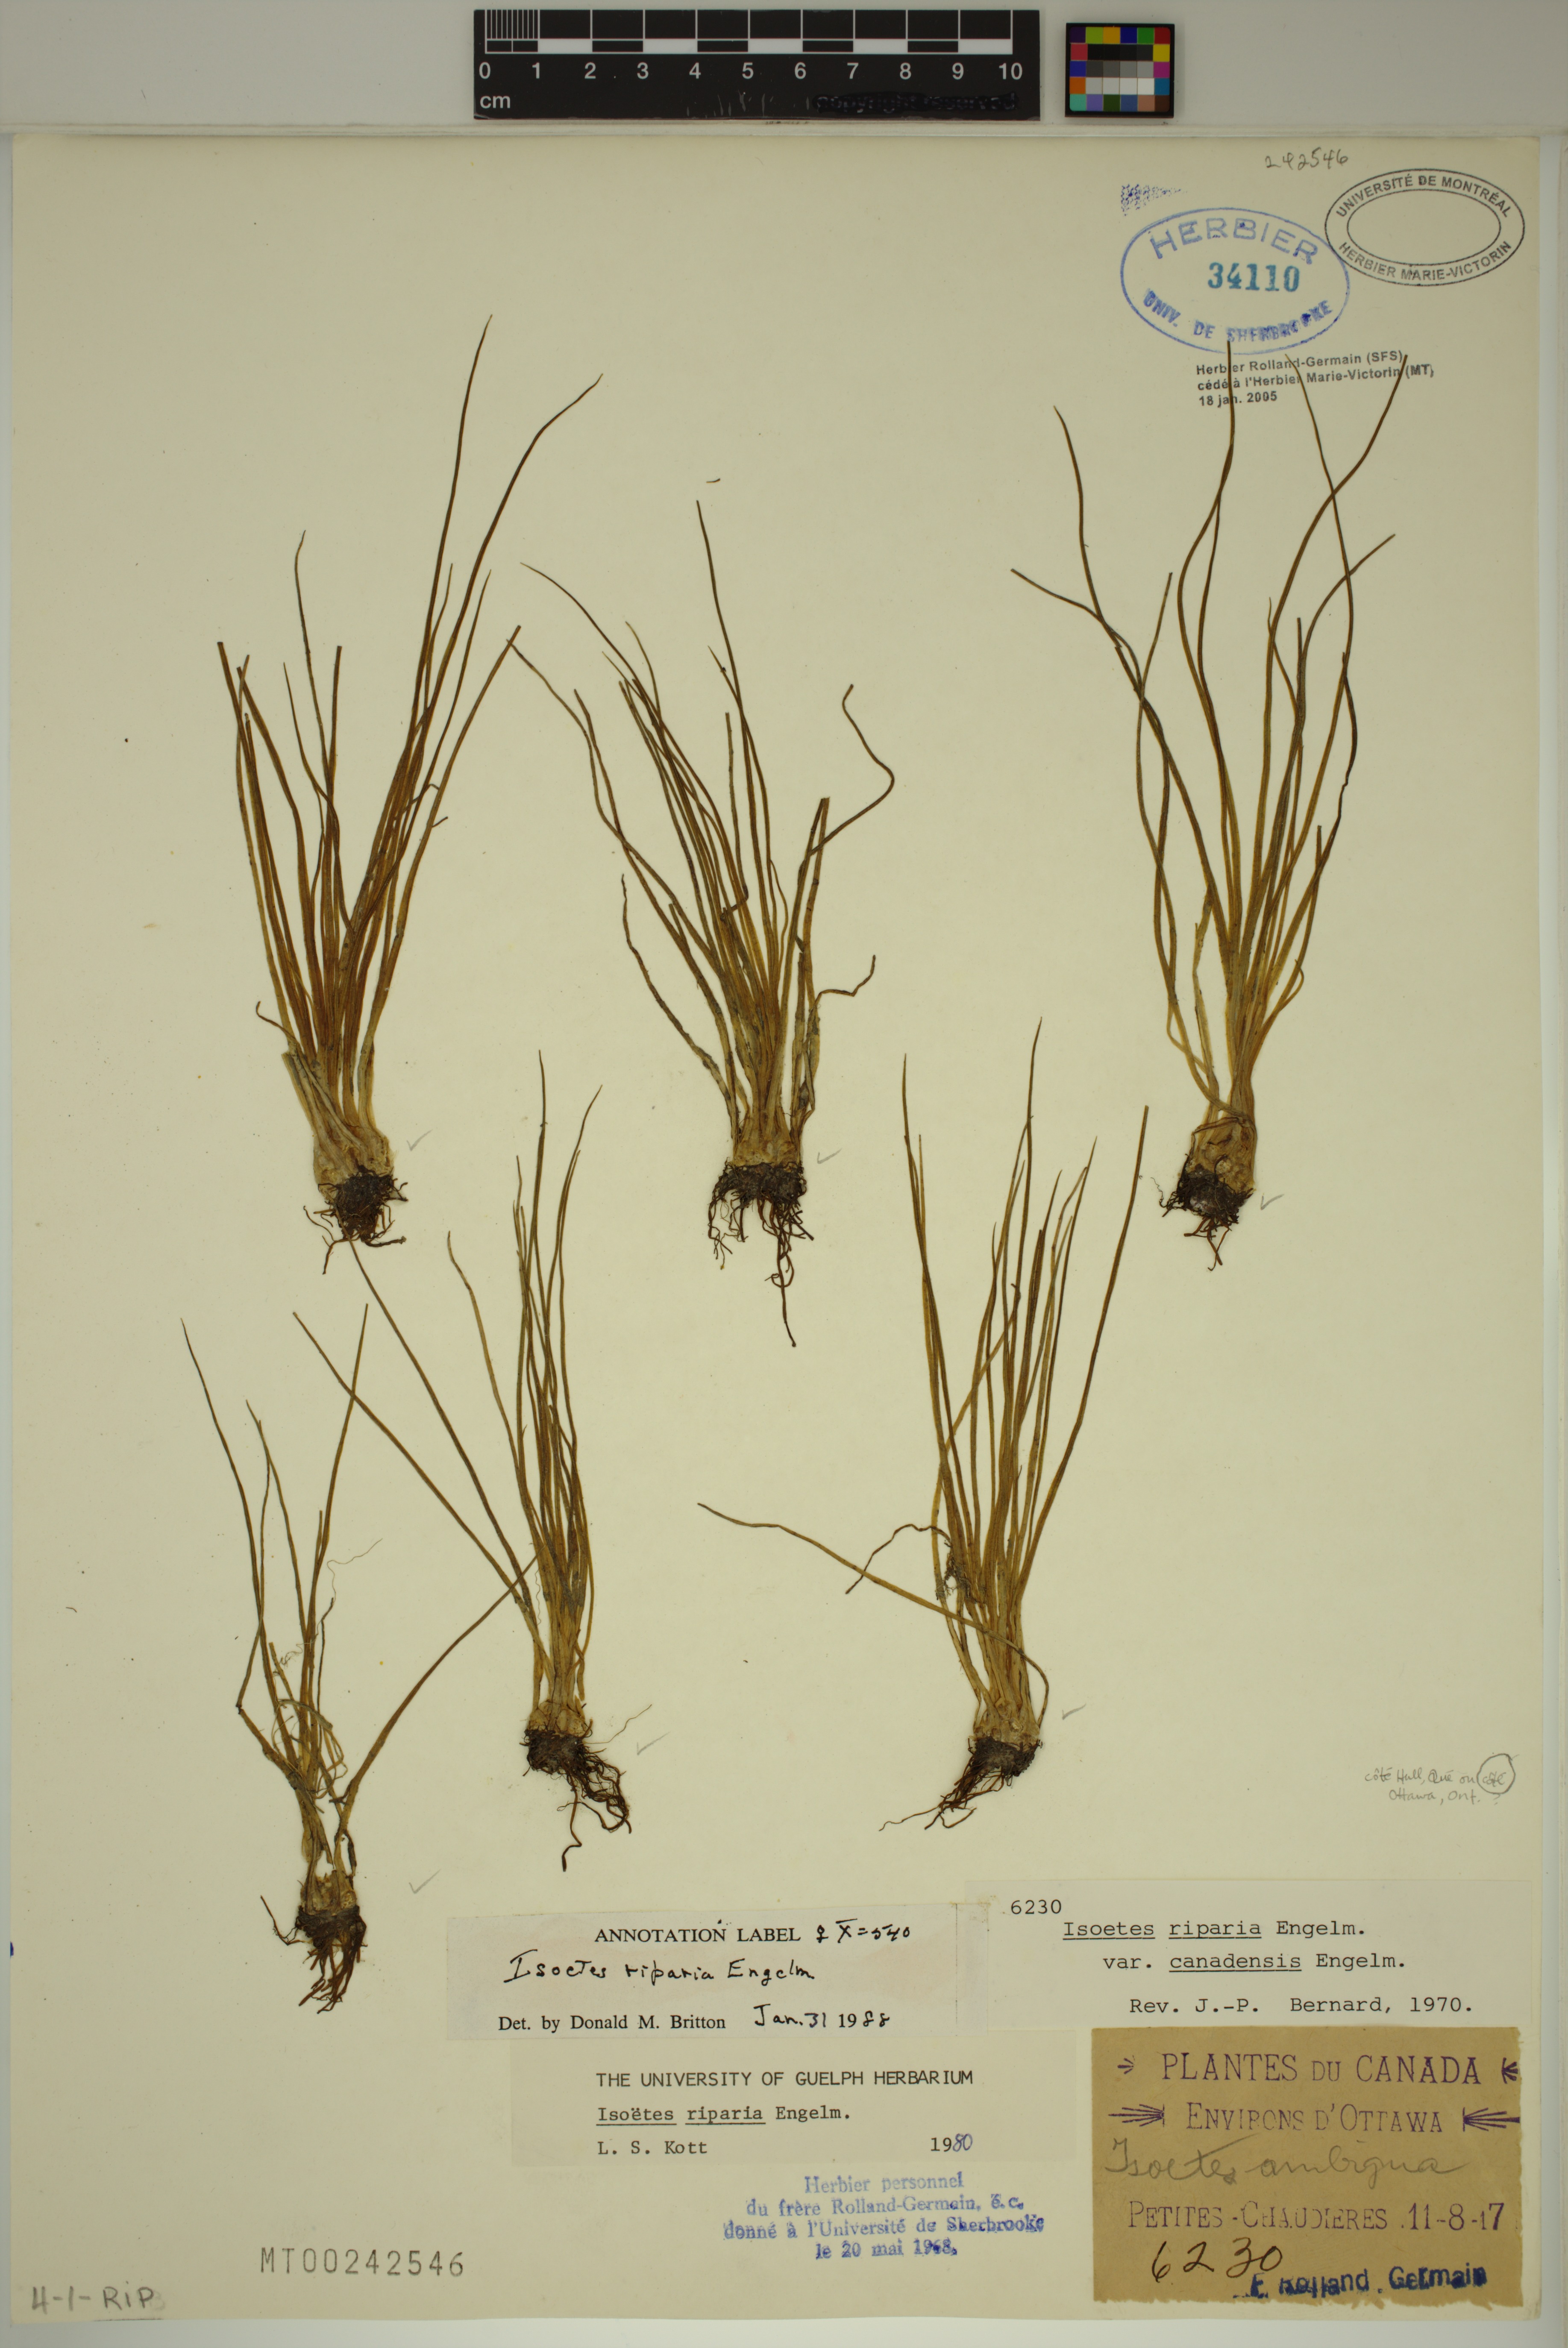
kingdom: Plantae
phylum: Tracheophyta
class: Lycopodiopsida
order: Isoetales
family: Isoetaceae
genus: Isoetes
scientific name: Isoetes septentrionalis
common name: Northern quillwort
